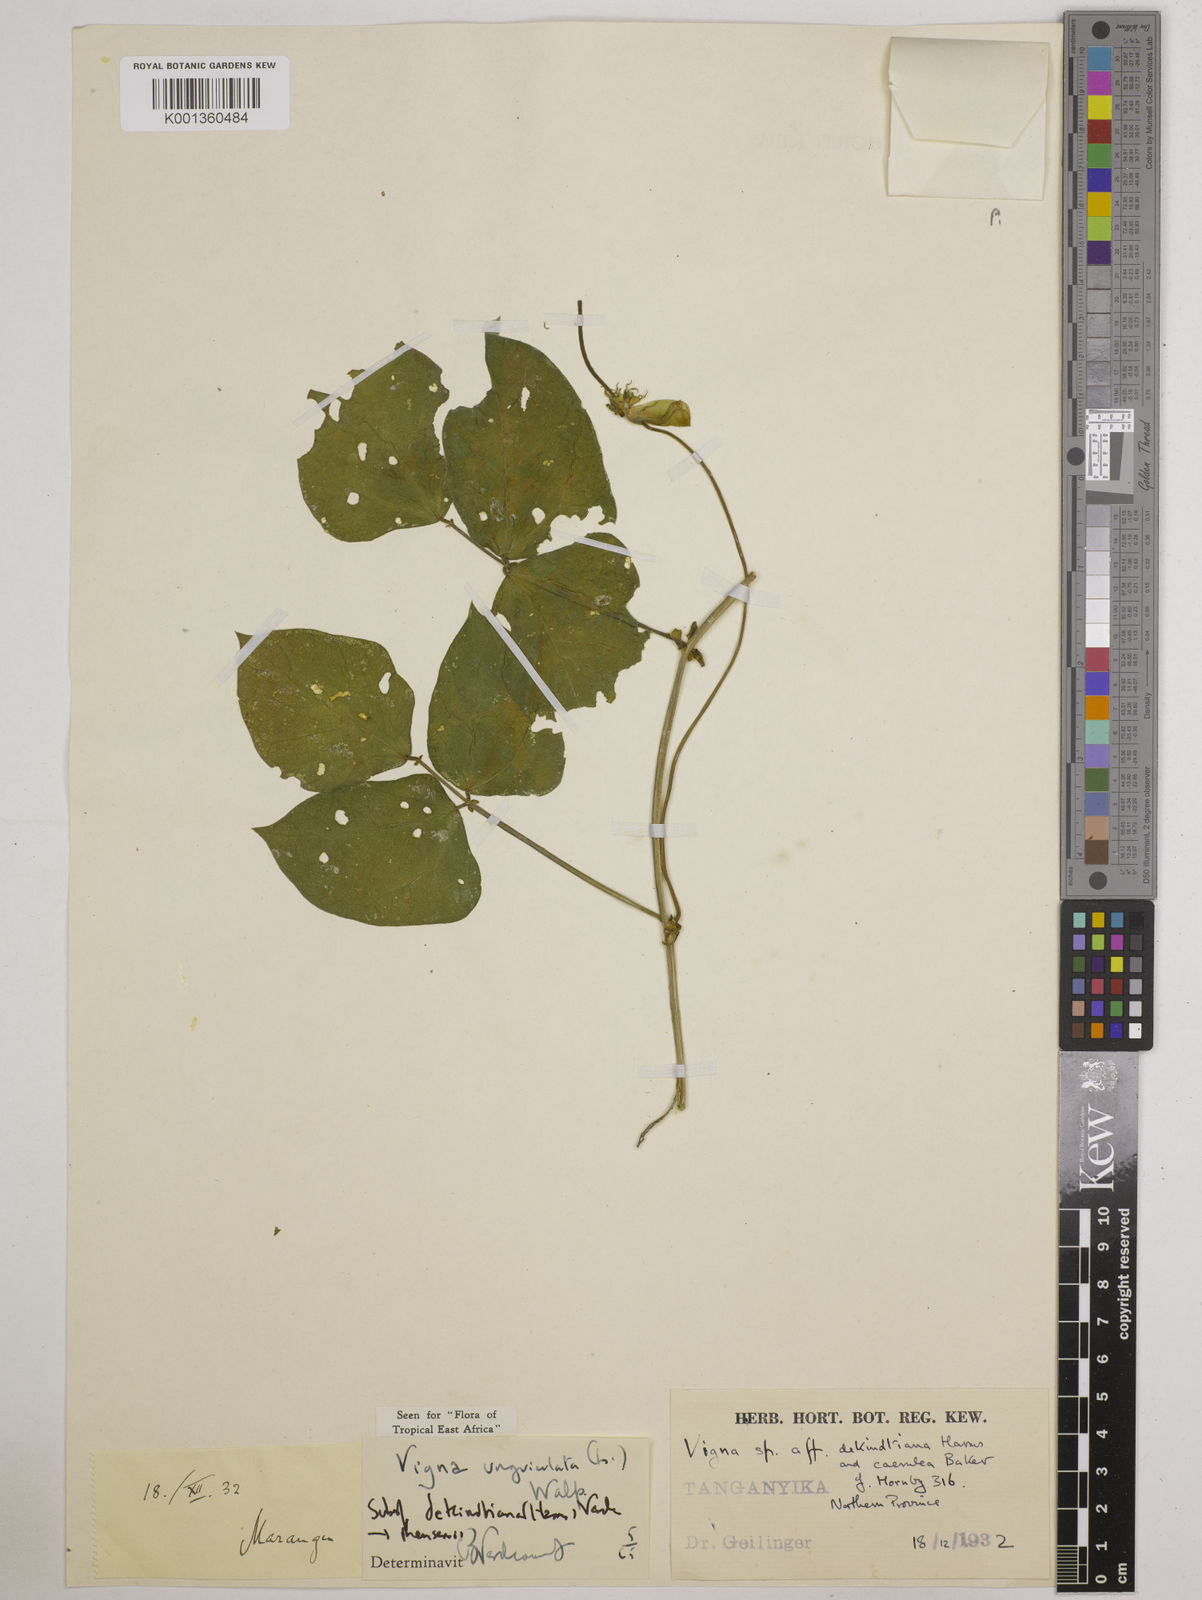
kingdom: Plantae
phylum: Tracheophyta
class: Magnoliopsida
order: Fabales
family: Fabaceae
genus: Vigna
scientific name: Vigna
